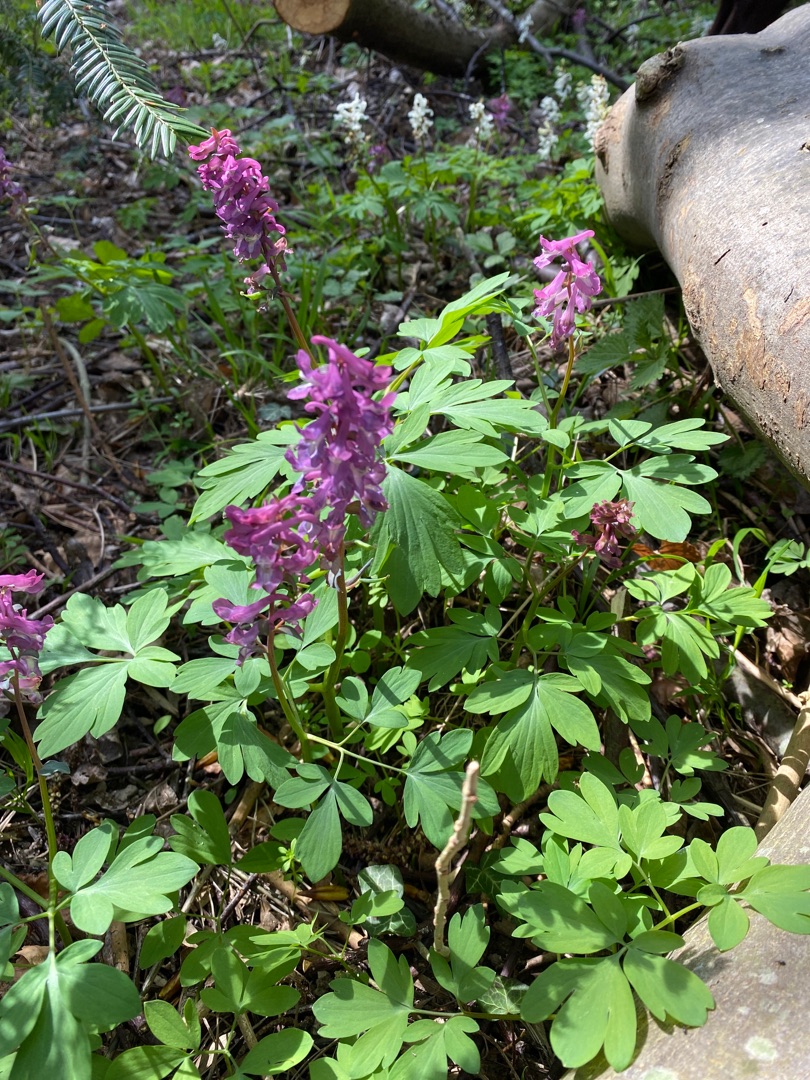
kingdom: Plantae
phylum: Tracheophyta
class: Magnoliopsida
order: Ranunculales
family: Papaveraceae
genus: Corydalis
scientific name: Corydalis cava
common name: Hulrodet lærkespore
